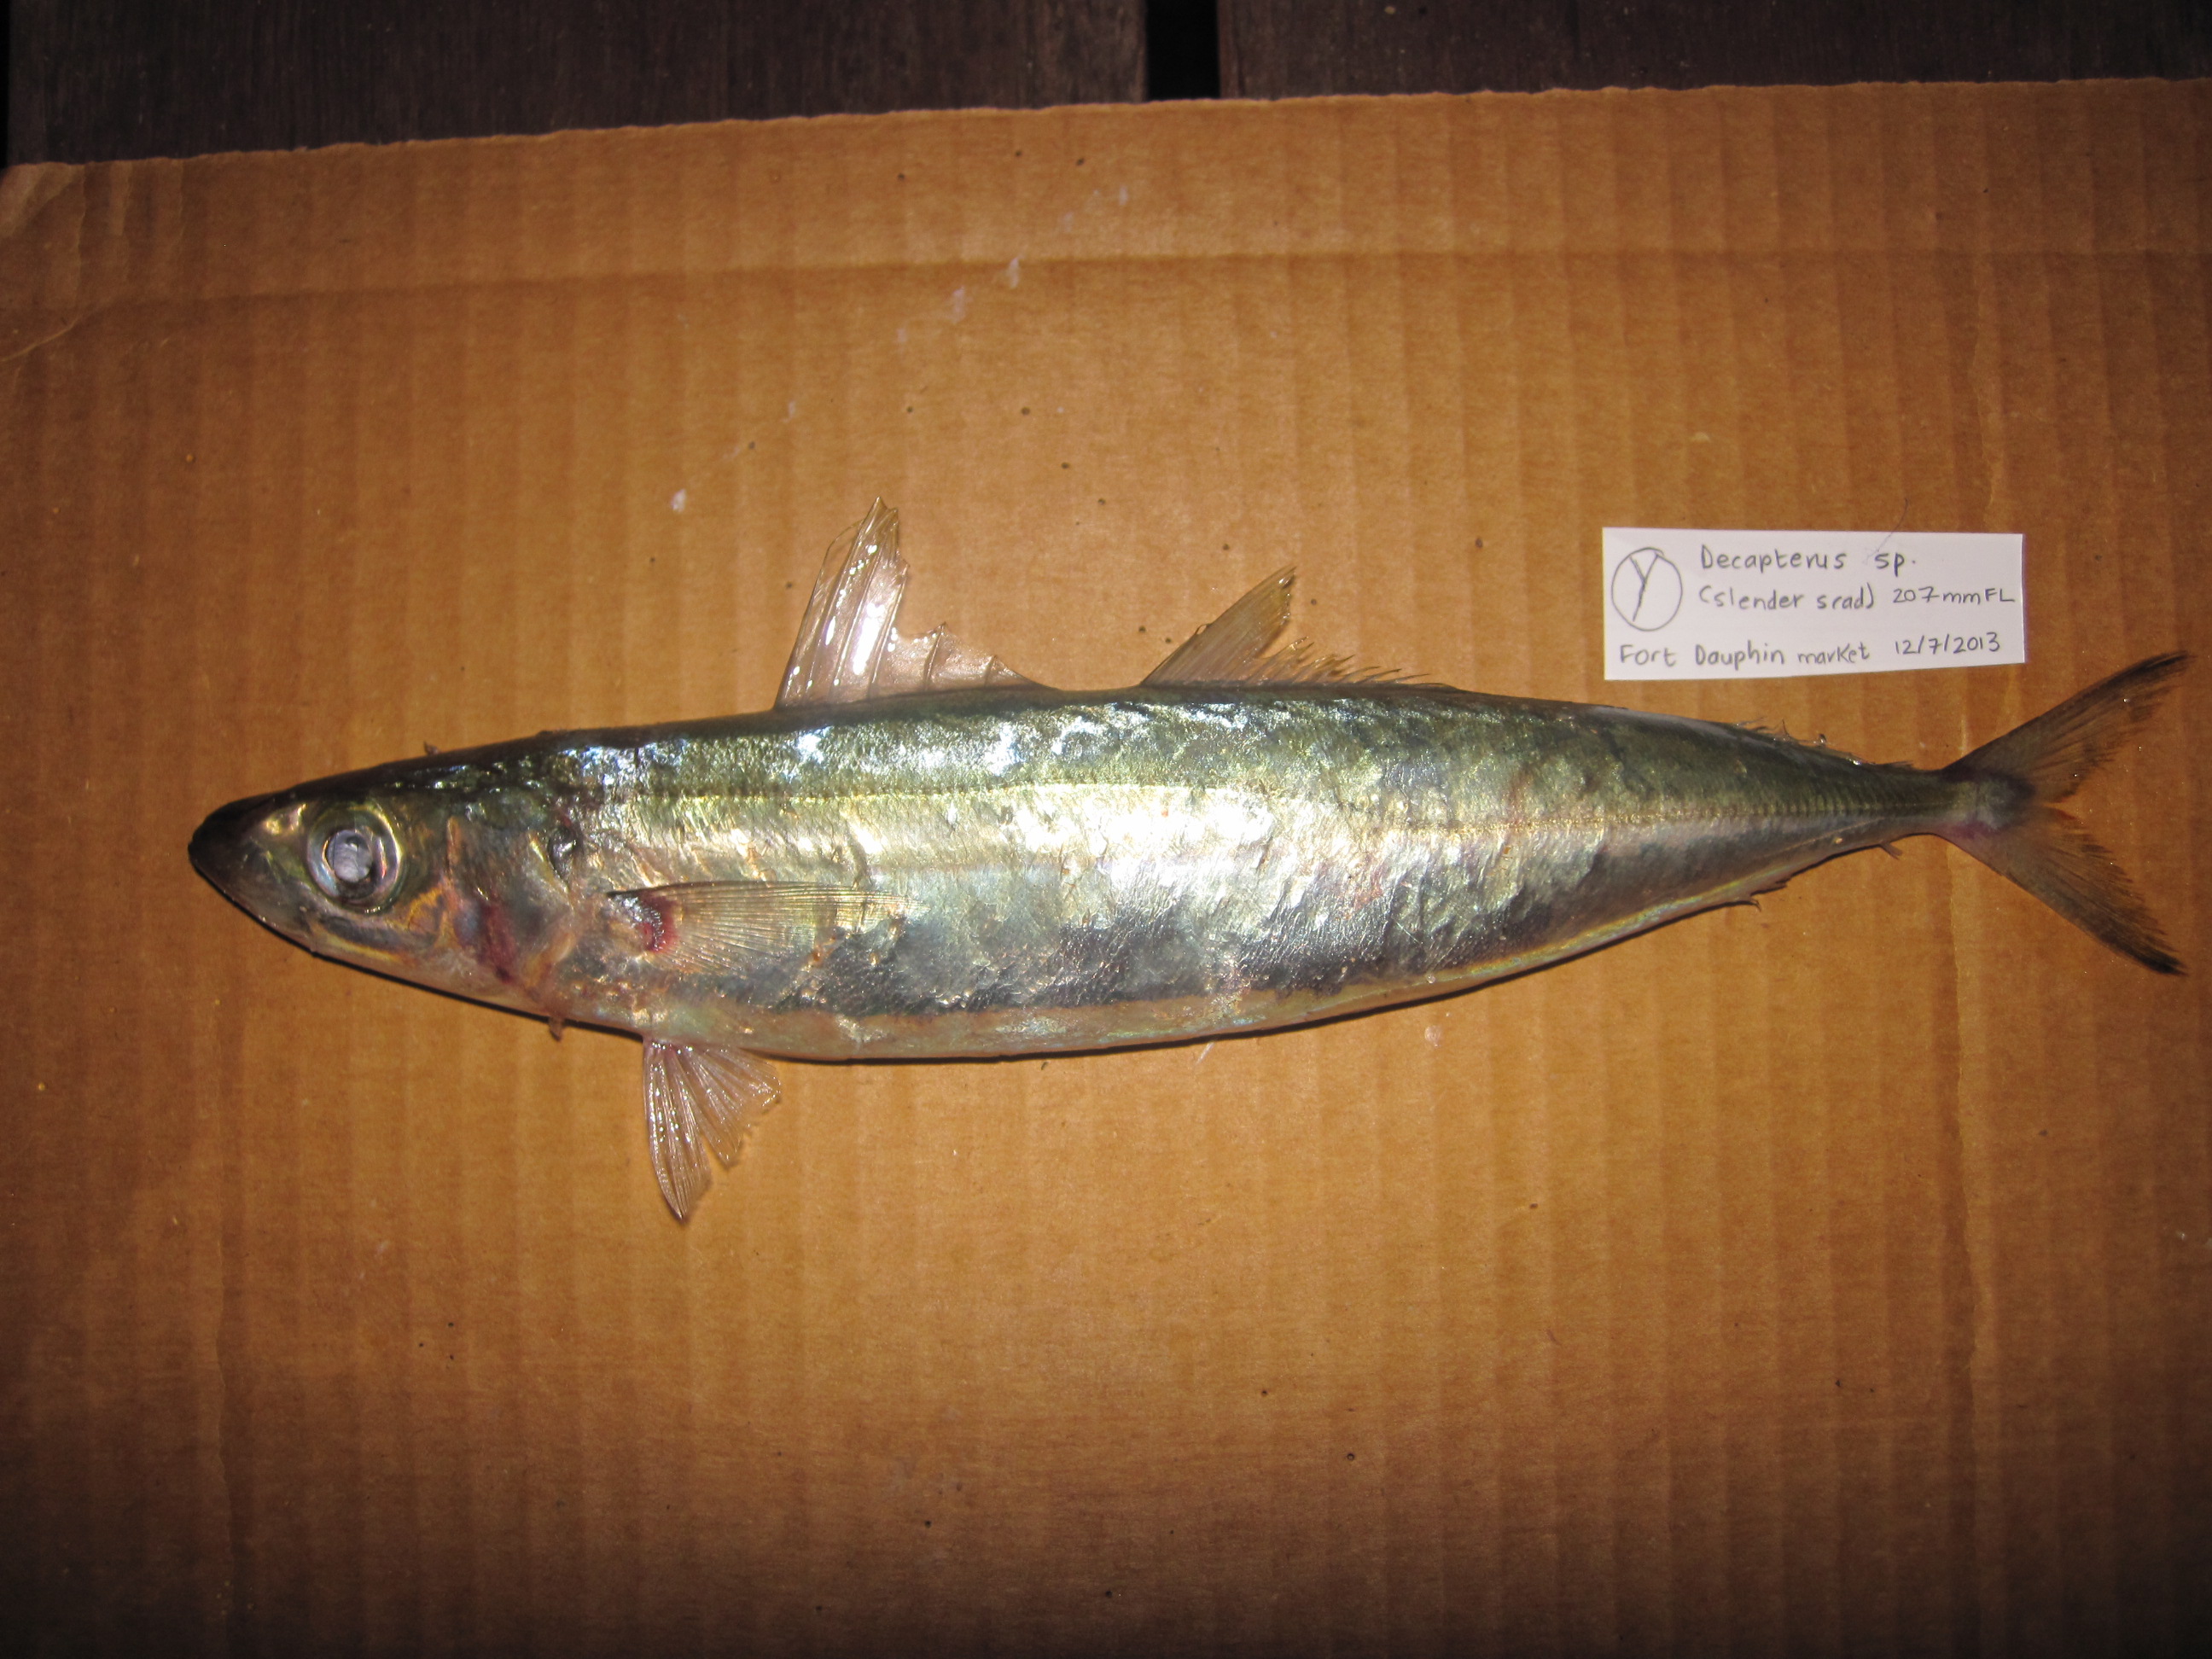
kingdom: Animalia
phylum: Chordata
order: Perciformes
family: Carangidae
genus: Decapterus
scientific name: Decapterus macrosoma
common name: Shortfin scad
